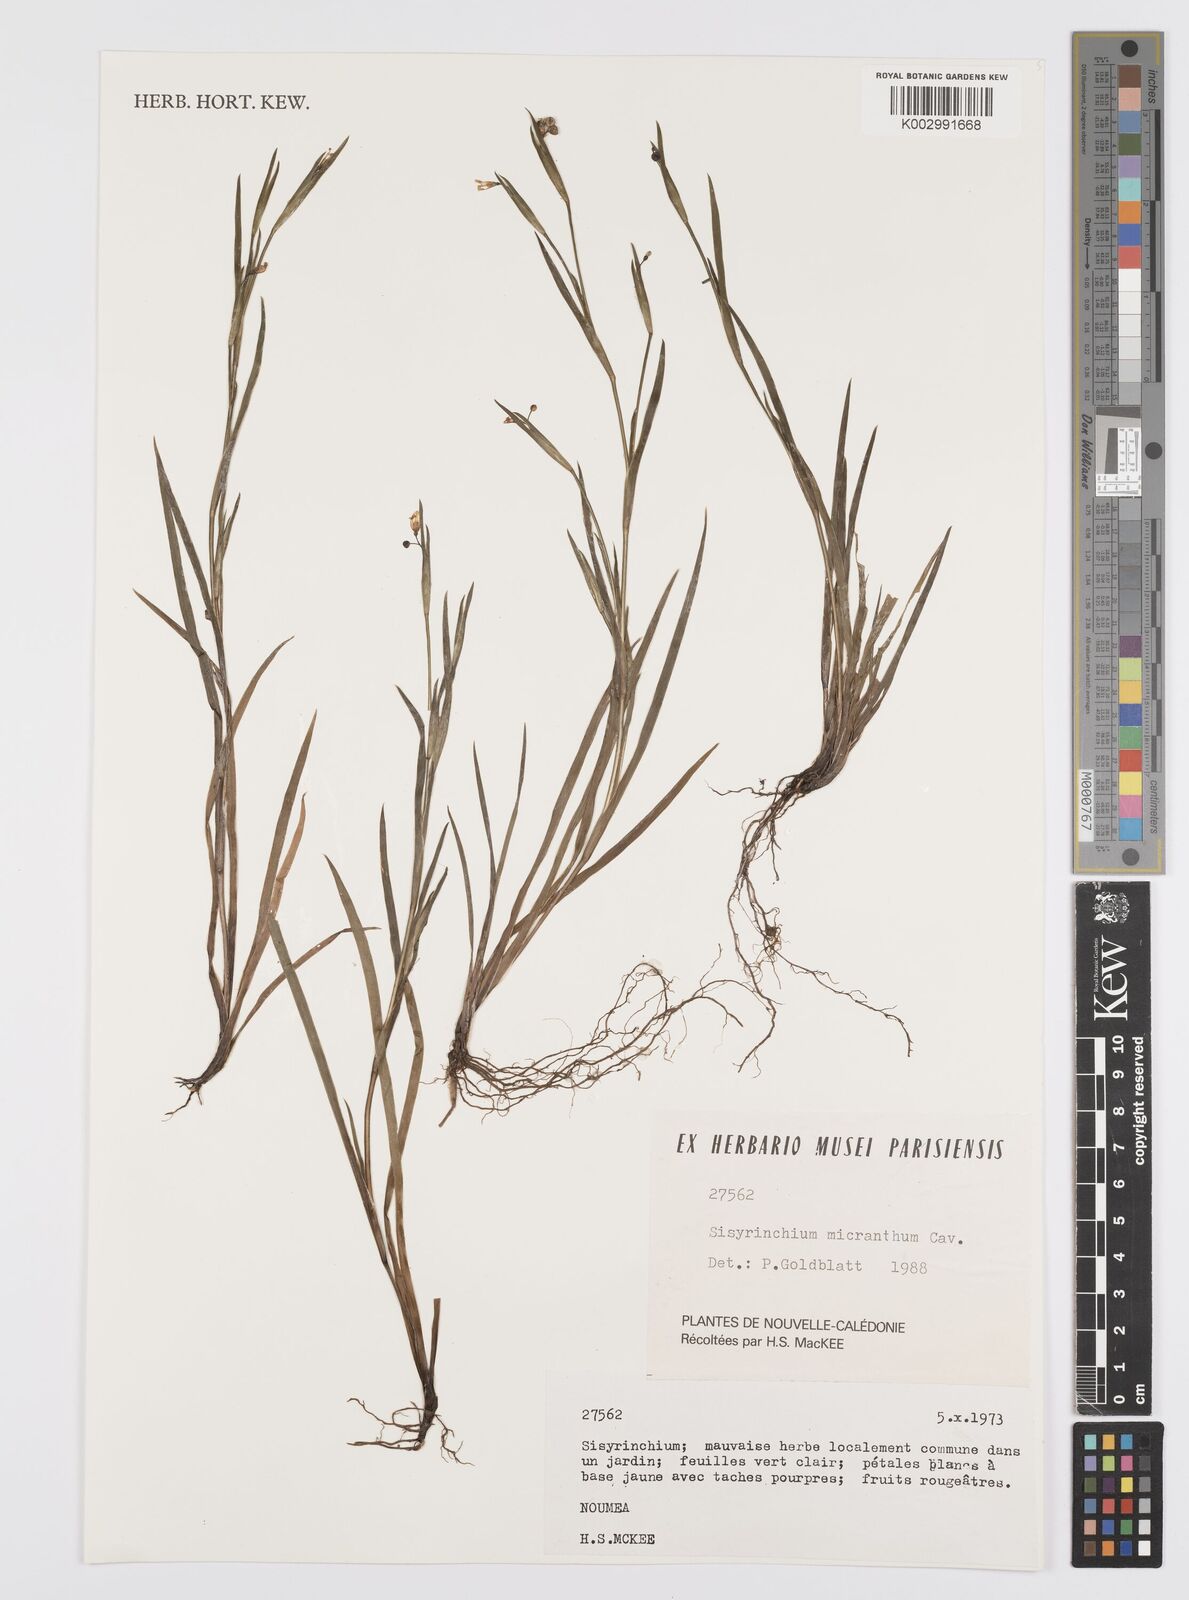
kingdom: Plantae
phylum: Tracheophyta
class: Liliopsida
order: Asparagales
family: Iridaceae
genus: Sisyrinchium
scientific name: Sisyrinchium micranthum
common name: Bermuda pigroot
